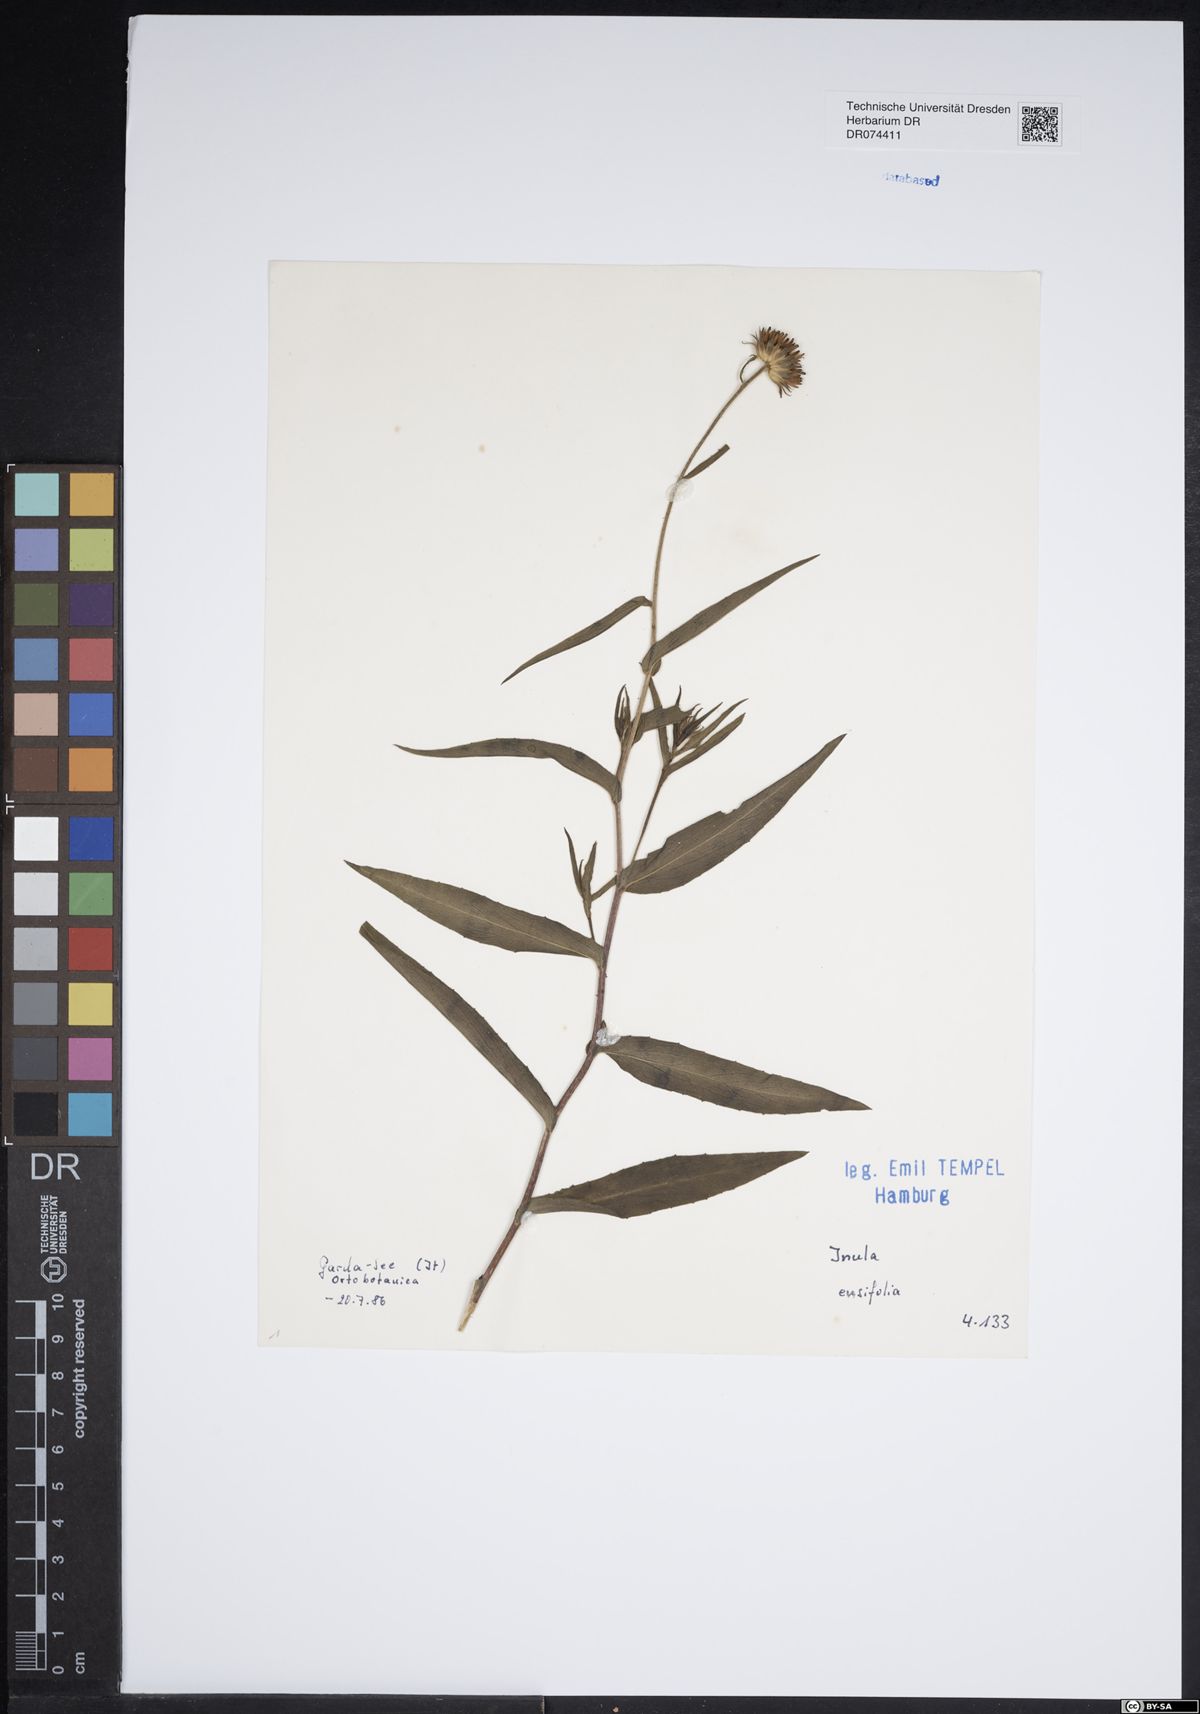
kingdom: Plantae
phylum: Tracheophyta
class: Magnoliopsida
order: Asterales
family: Asteraceae
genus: Pentanema
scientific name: Pentanema ensifolium
